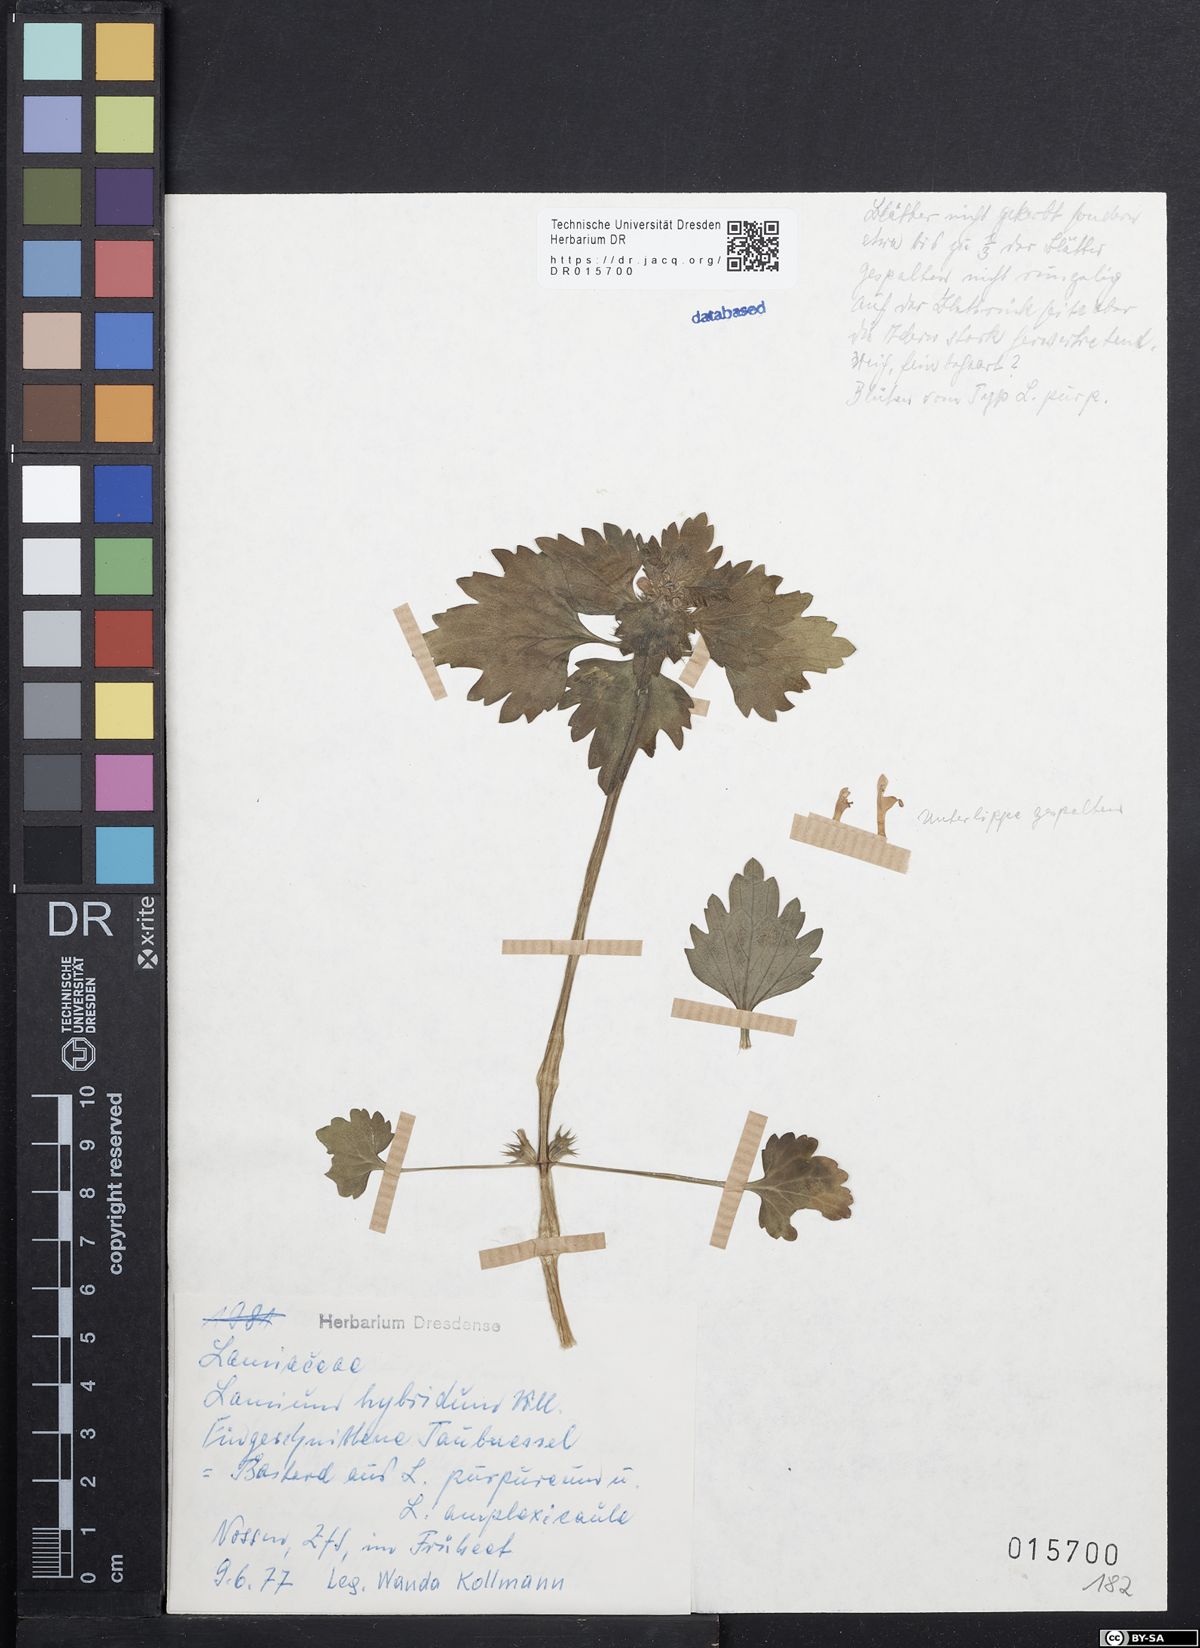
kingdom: Plantae
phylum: Tracheophyta
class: Magnoliopsida
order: Lamiales
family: Lamiaceae
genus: Lamium
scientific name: Lamium hybridum
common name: Cut-leaved dead-nettle
